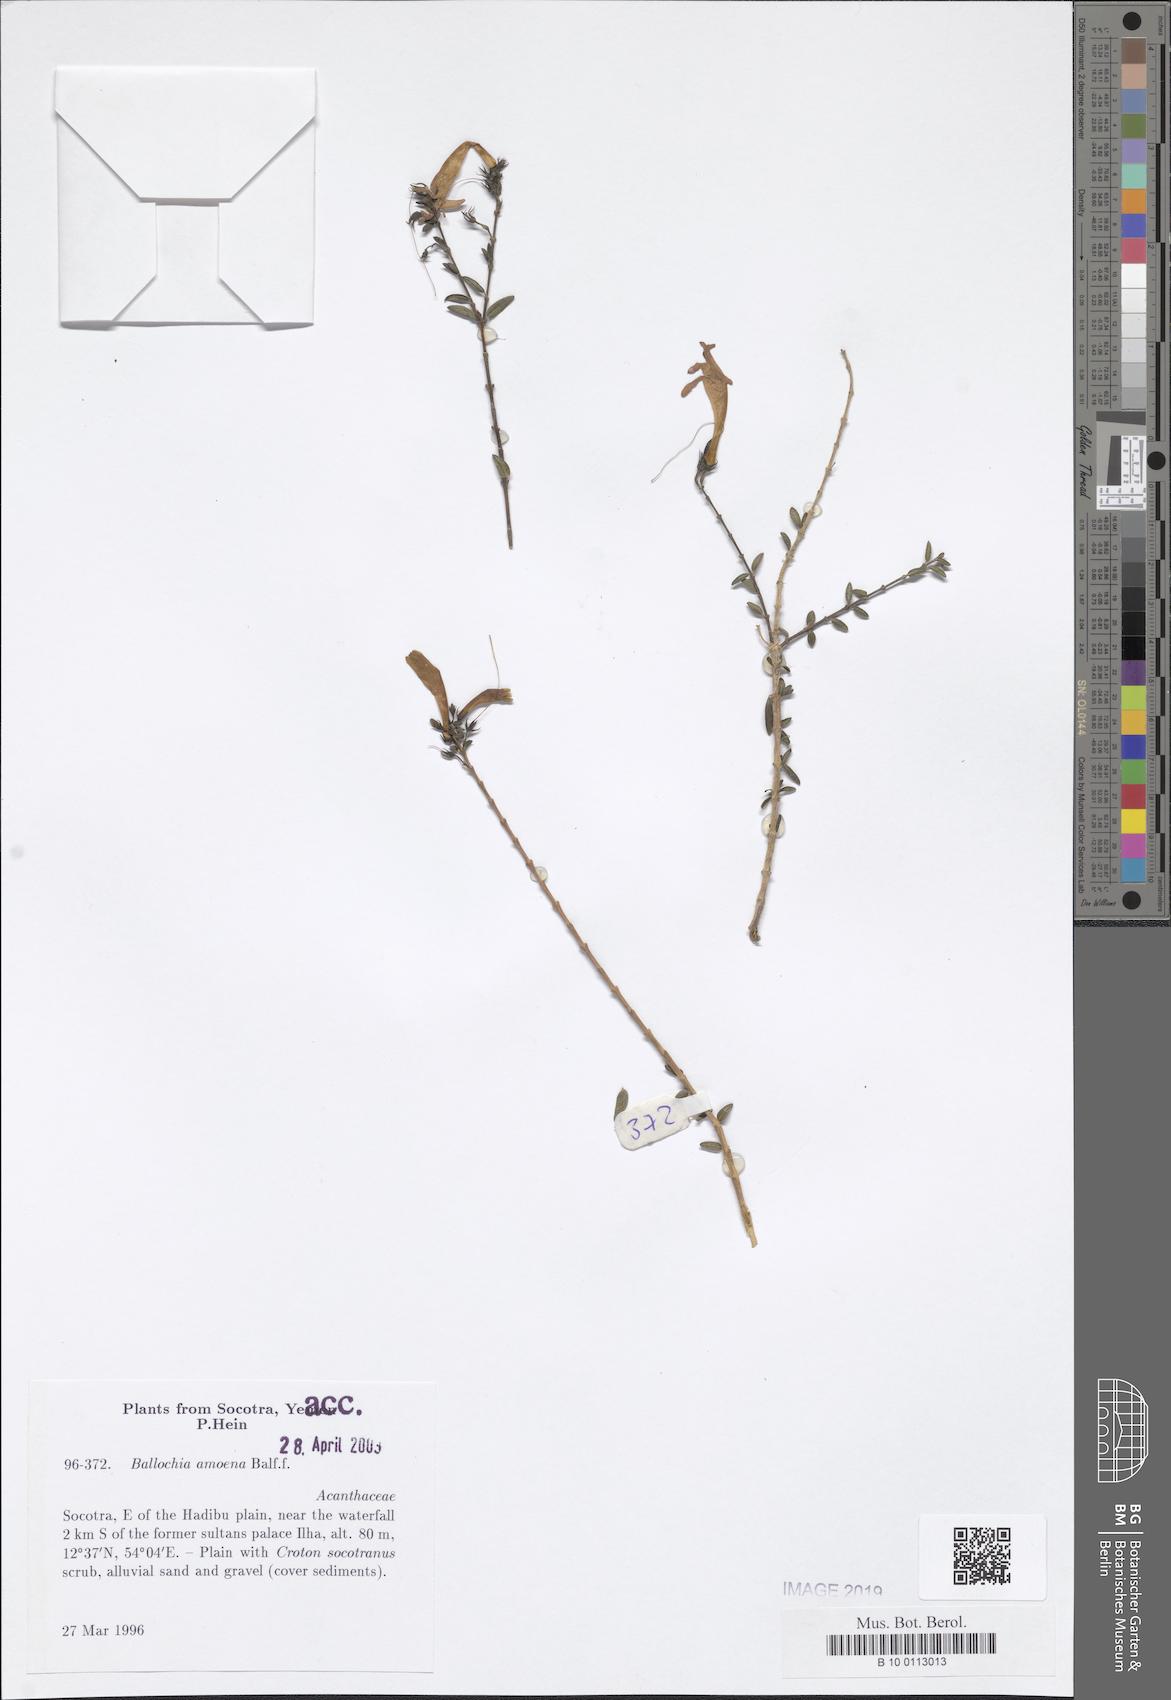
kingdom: Plantae
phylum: Tracheophyta
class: Magnoliopsida
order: Lamiales
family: Acanthaceae
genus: Ballochia
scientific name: Ballochia amoena
